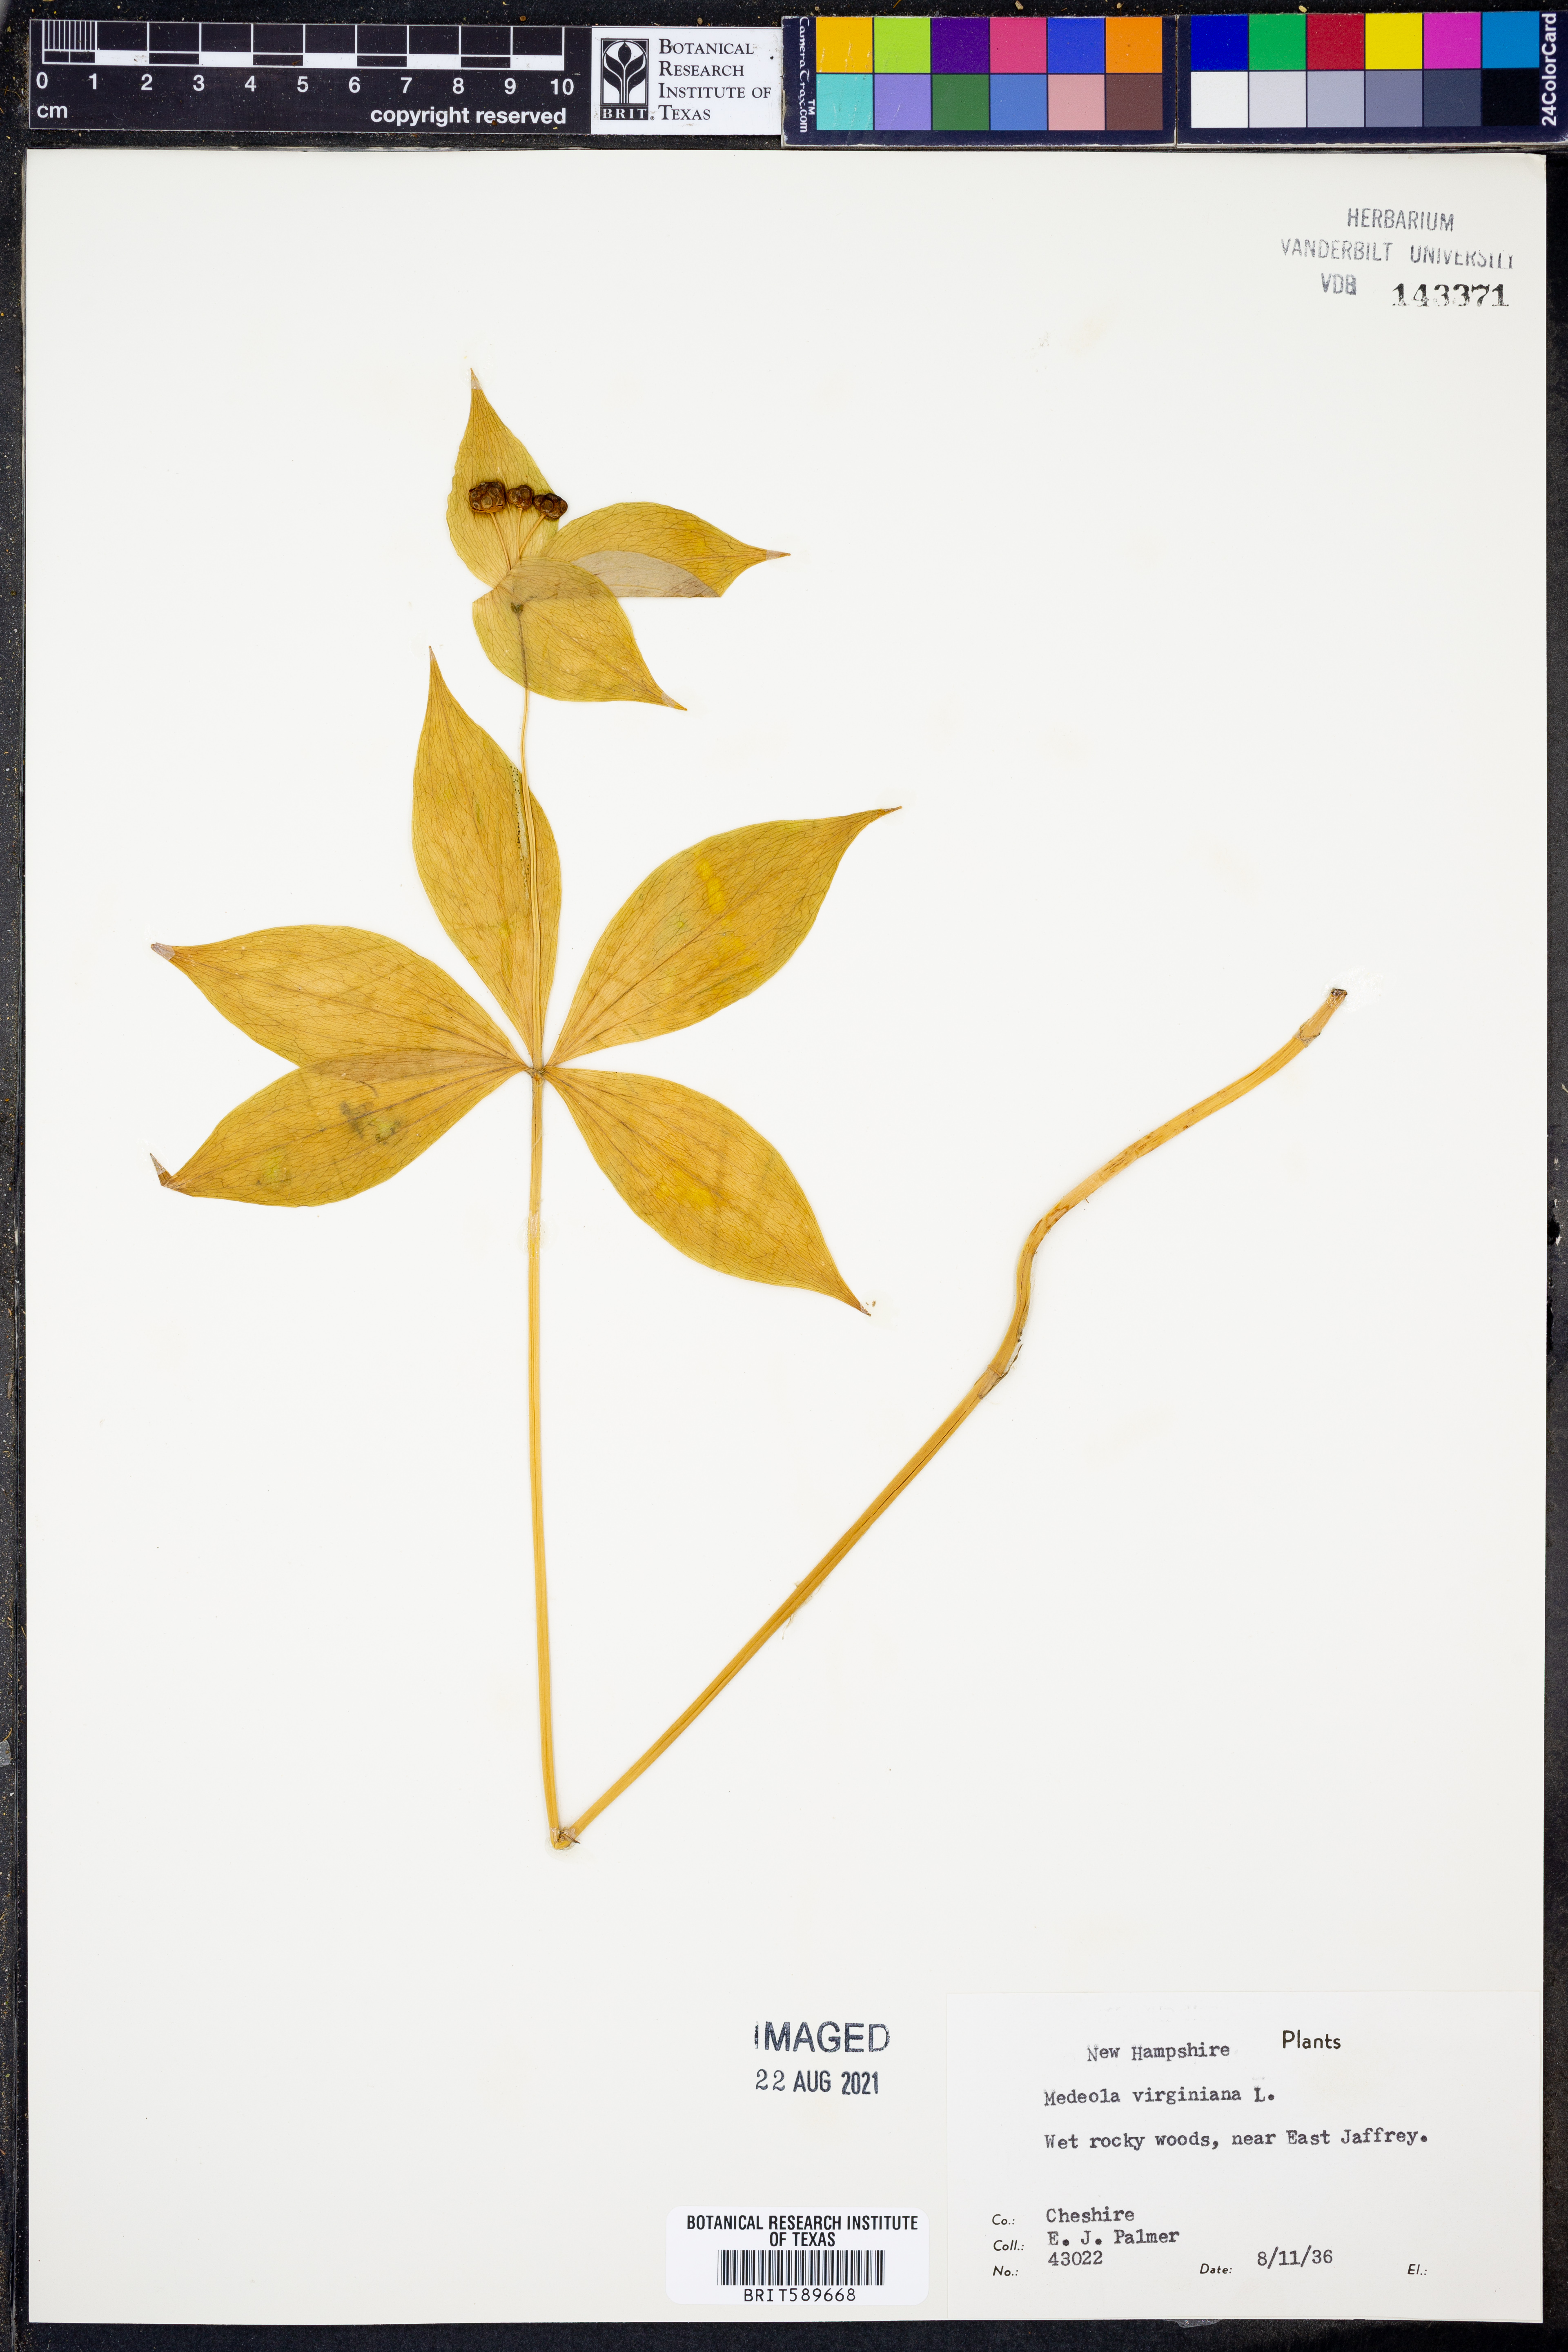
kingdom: Plantae
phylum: Tracheophyta
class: Liliopsida
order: Liliales
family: Liliaceae
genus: Medeola
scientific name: Medeola virginiana
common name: Indian cucumber-root
